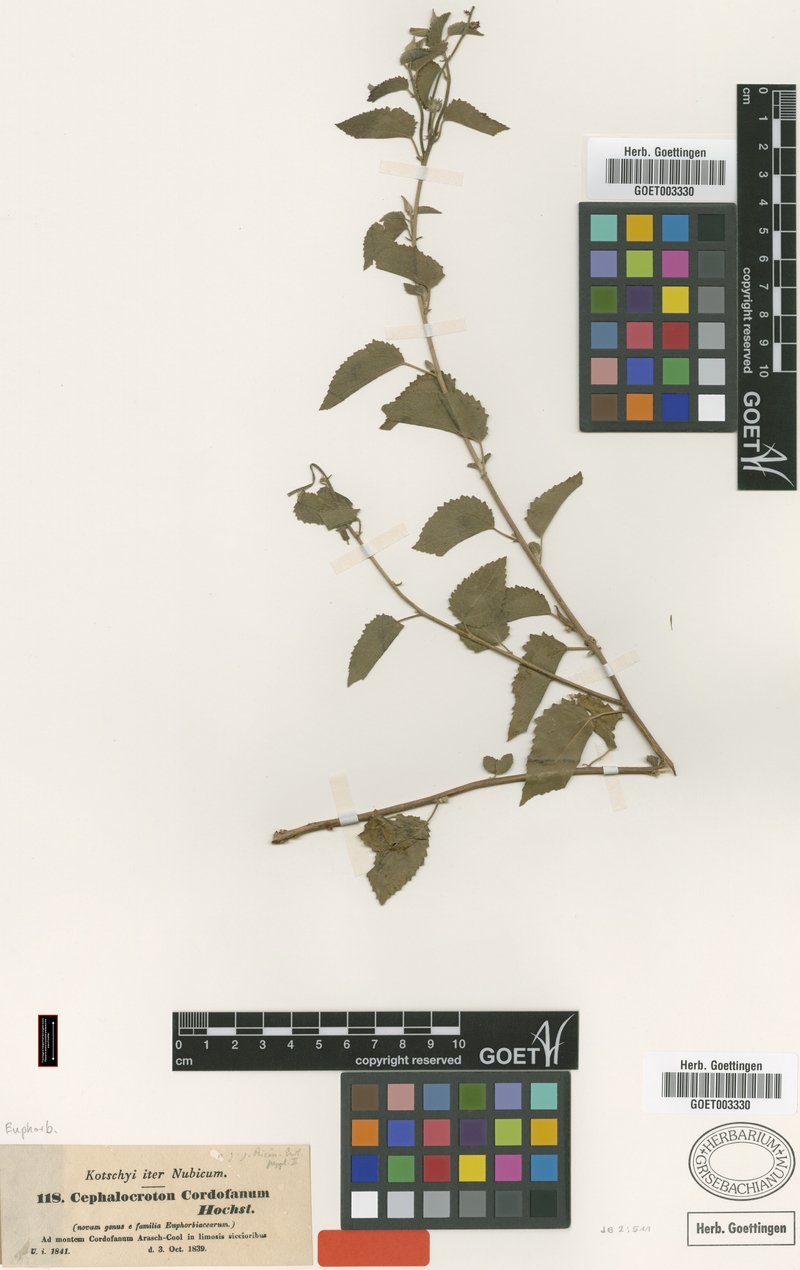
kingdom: Plantae
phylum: Tracheophyta
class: Magnoliopsida
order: Malpighiales
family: Euphorbiaceae
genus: Cephalocroton
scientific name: Cephalocroton cordofanus
